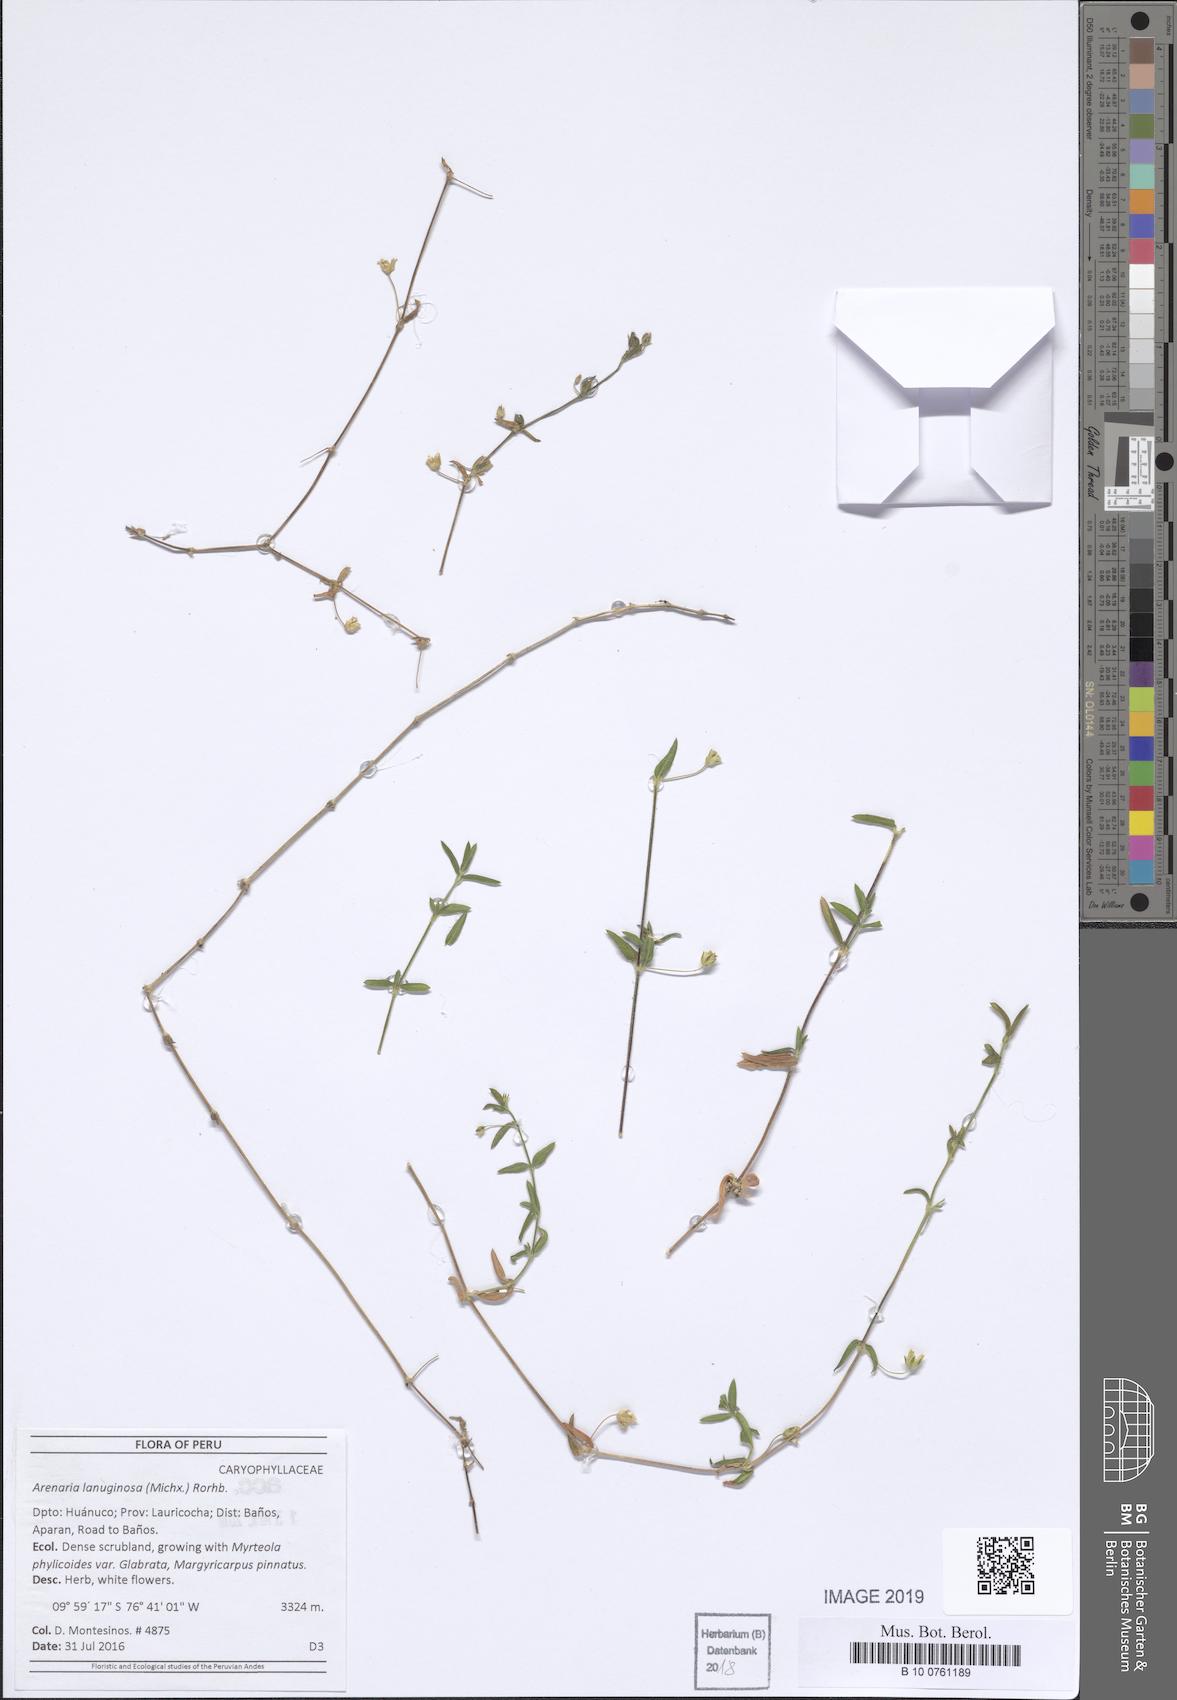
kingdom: Plantae
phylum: Tracheophyta
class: Magnoliopsida
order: Caryophyllales
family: Caryophyllaceae
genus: Arenaria
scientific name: Arenaria lanuginosa
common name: Spread sandwort
